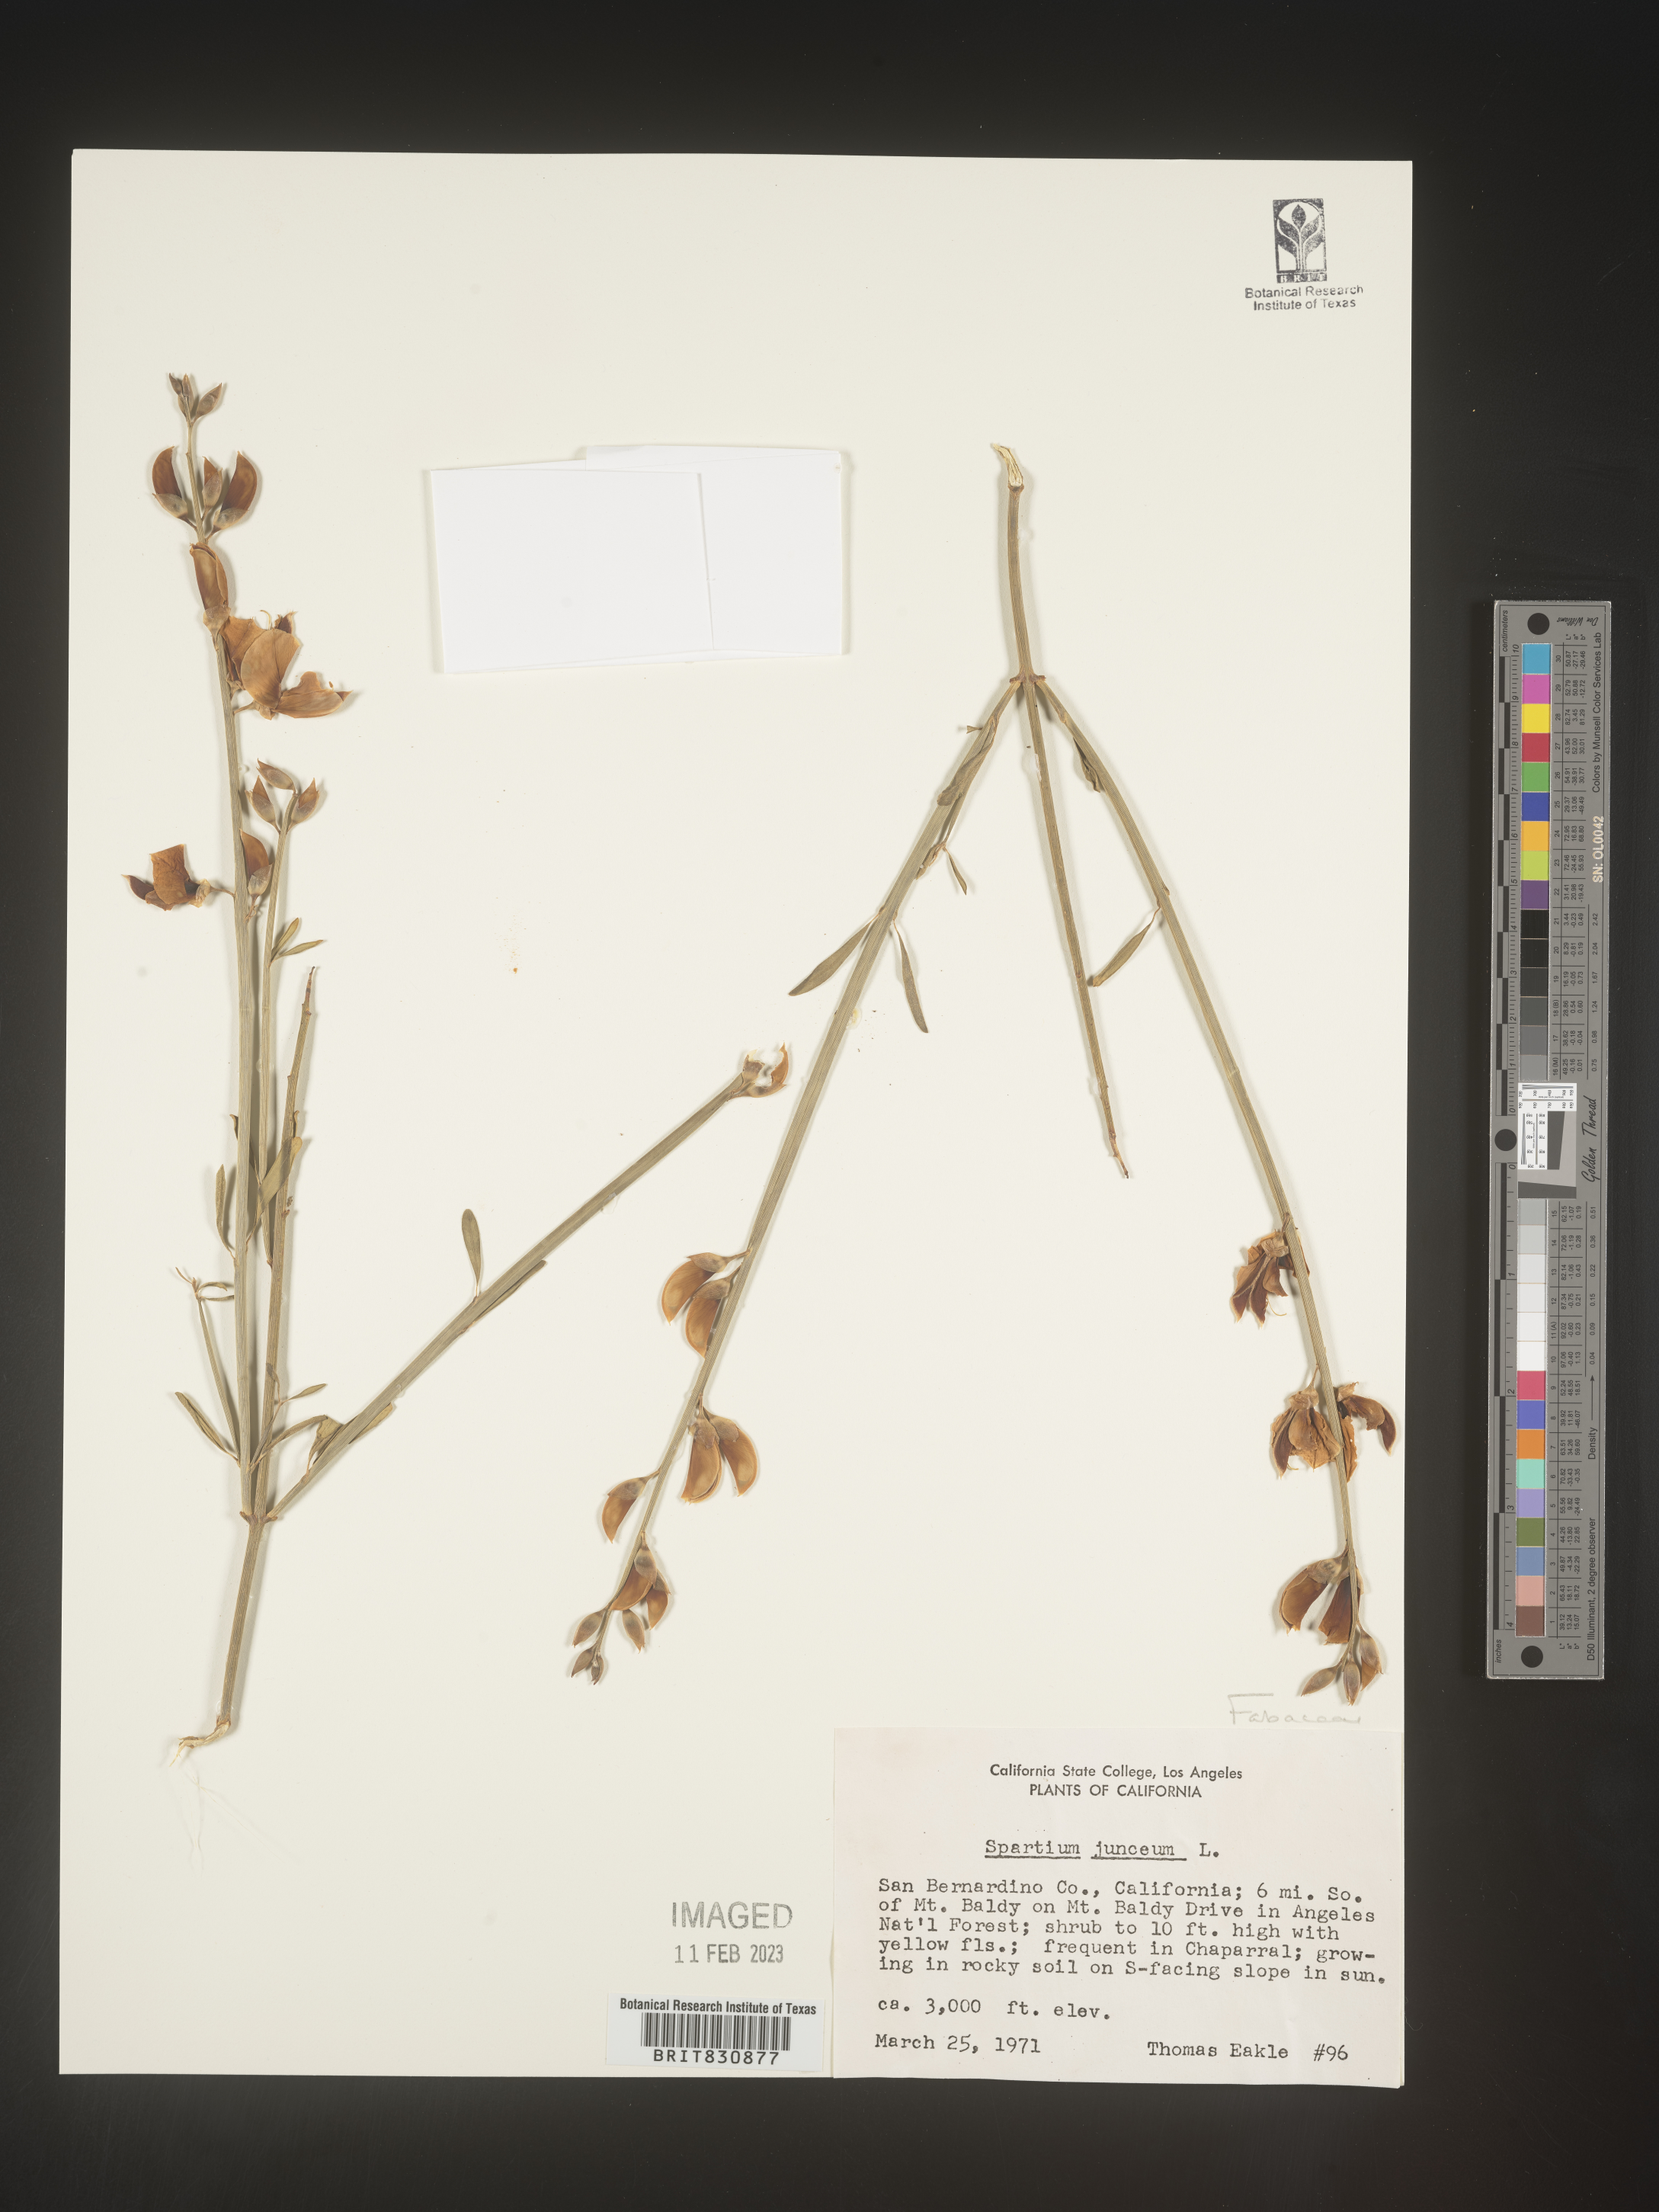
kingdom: Plantae
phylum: Tracheophyta
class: Magnoliopsida
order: Fabales
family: Fabaceae
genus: Spartium
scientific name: Spartium
